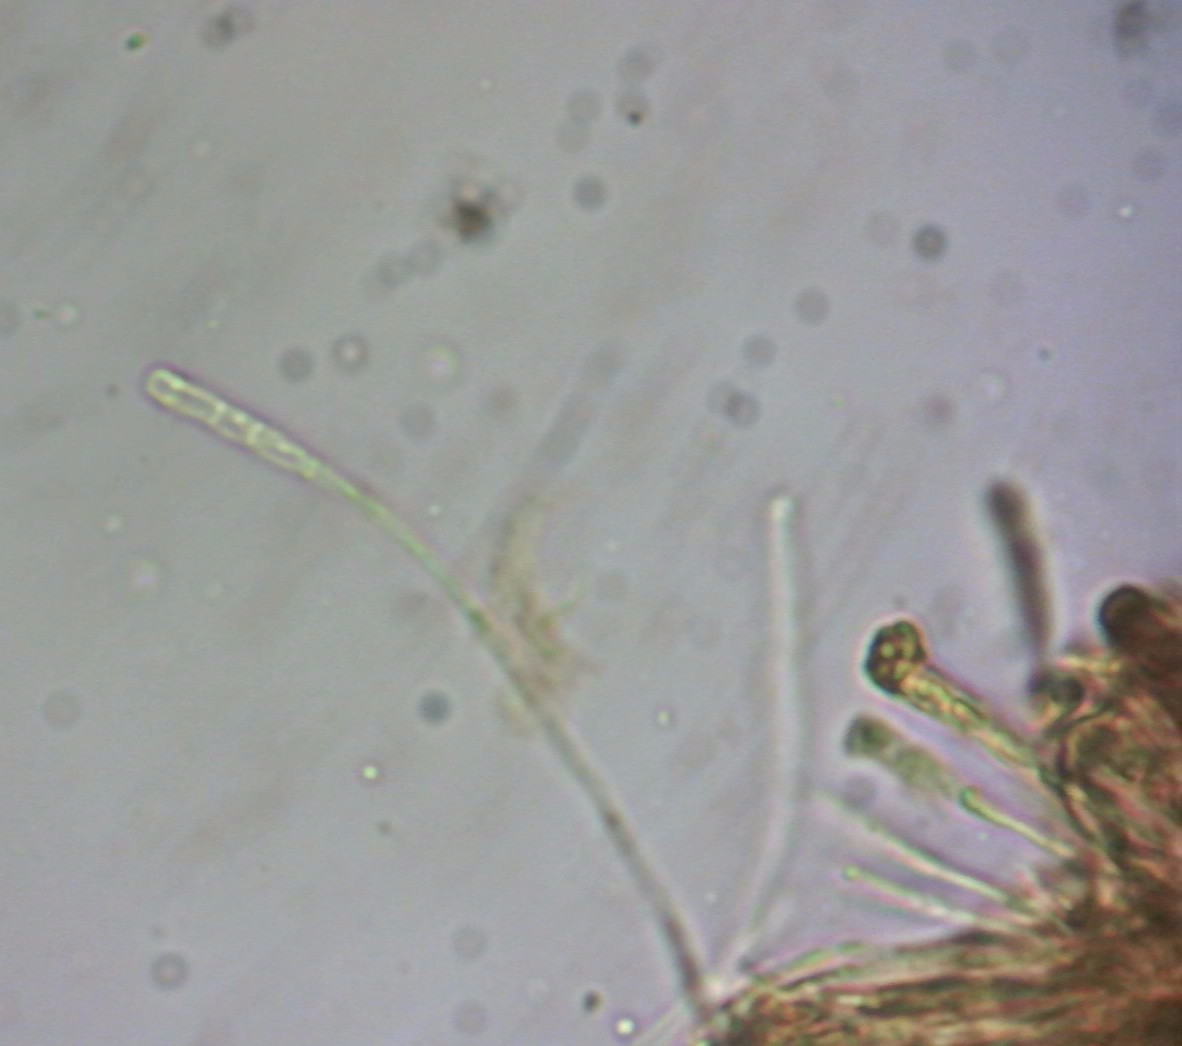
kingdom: Fungi
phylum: Ascomycota
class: Lecanoromycetes
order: Ostropales
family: Coenogoniaceae
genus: Coenogonium
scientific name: Coenogonium pineti
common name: liden vokslav
